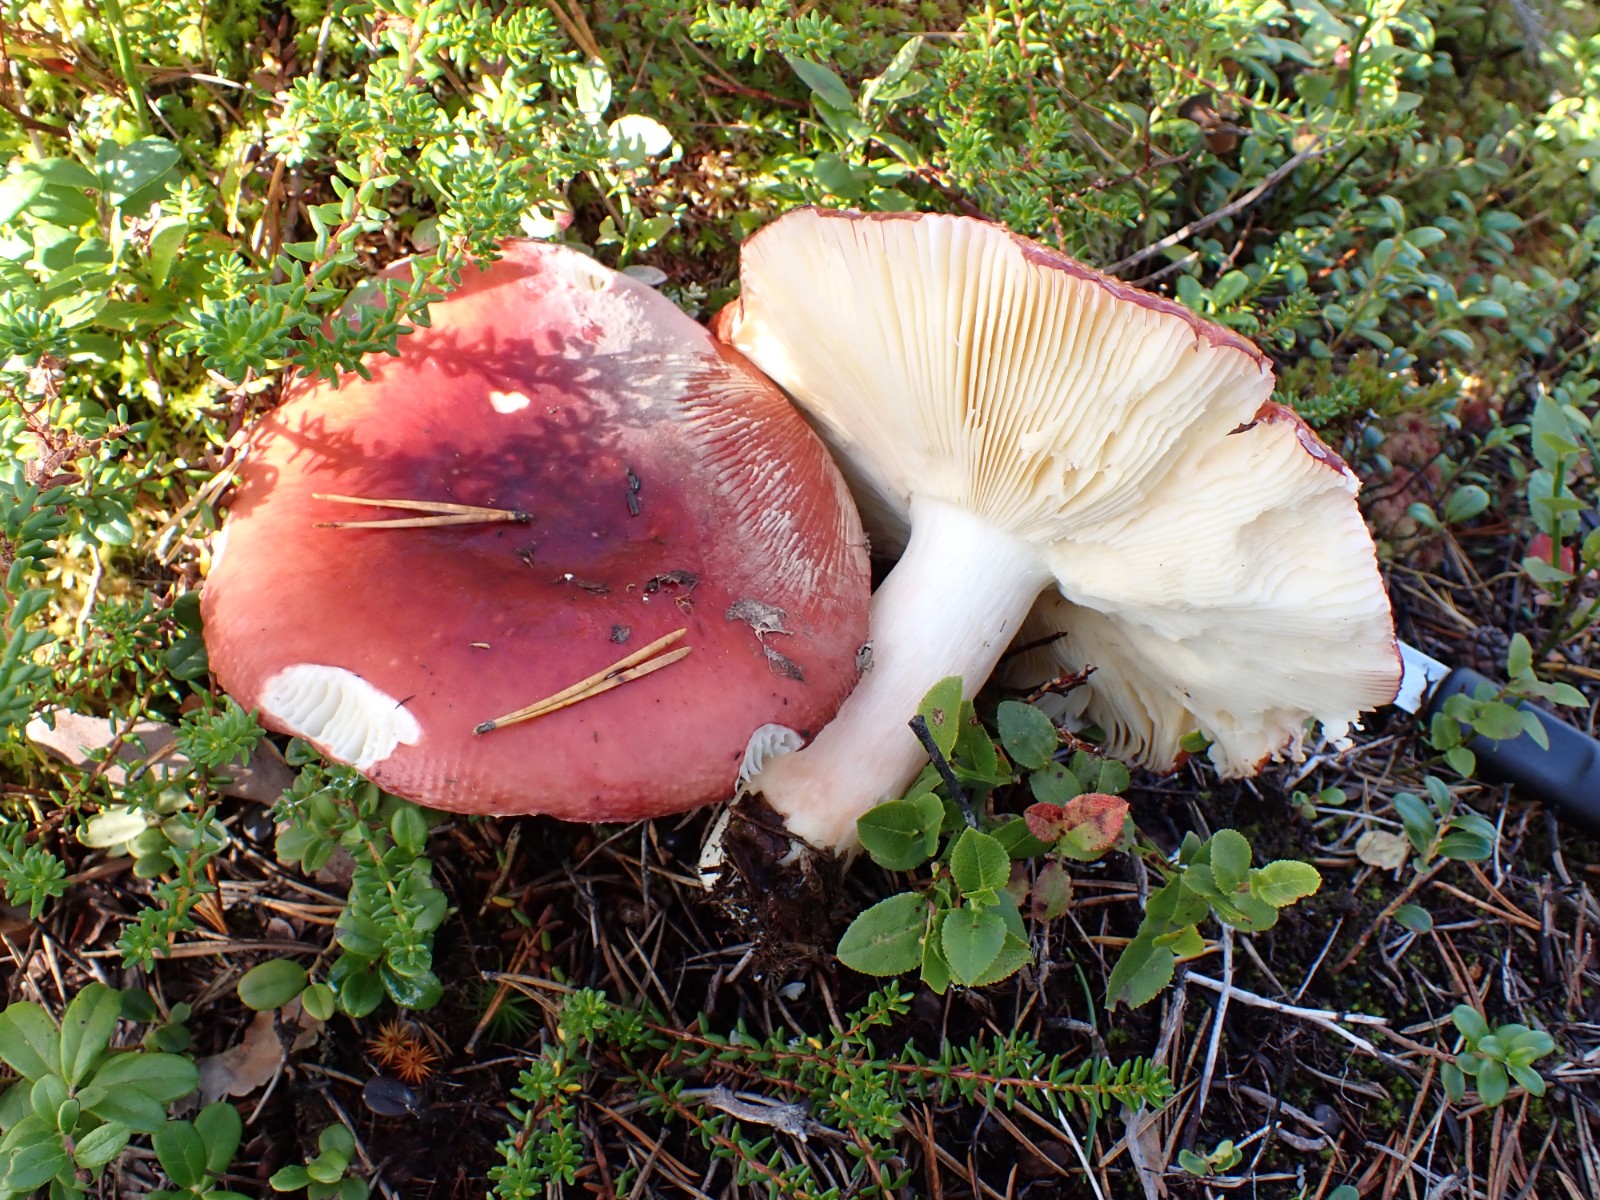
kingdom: Fungi
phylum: Basidiomycota
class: Agaricomycetes
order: Russulales
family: Russulaceae
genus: Russula
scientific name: Russula paludosa
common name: prægtig skørhat
